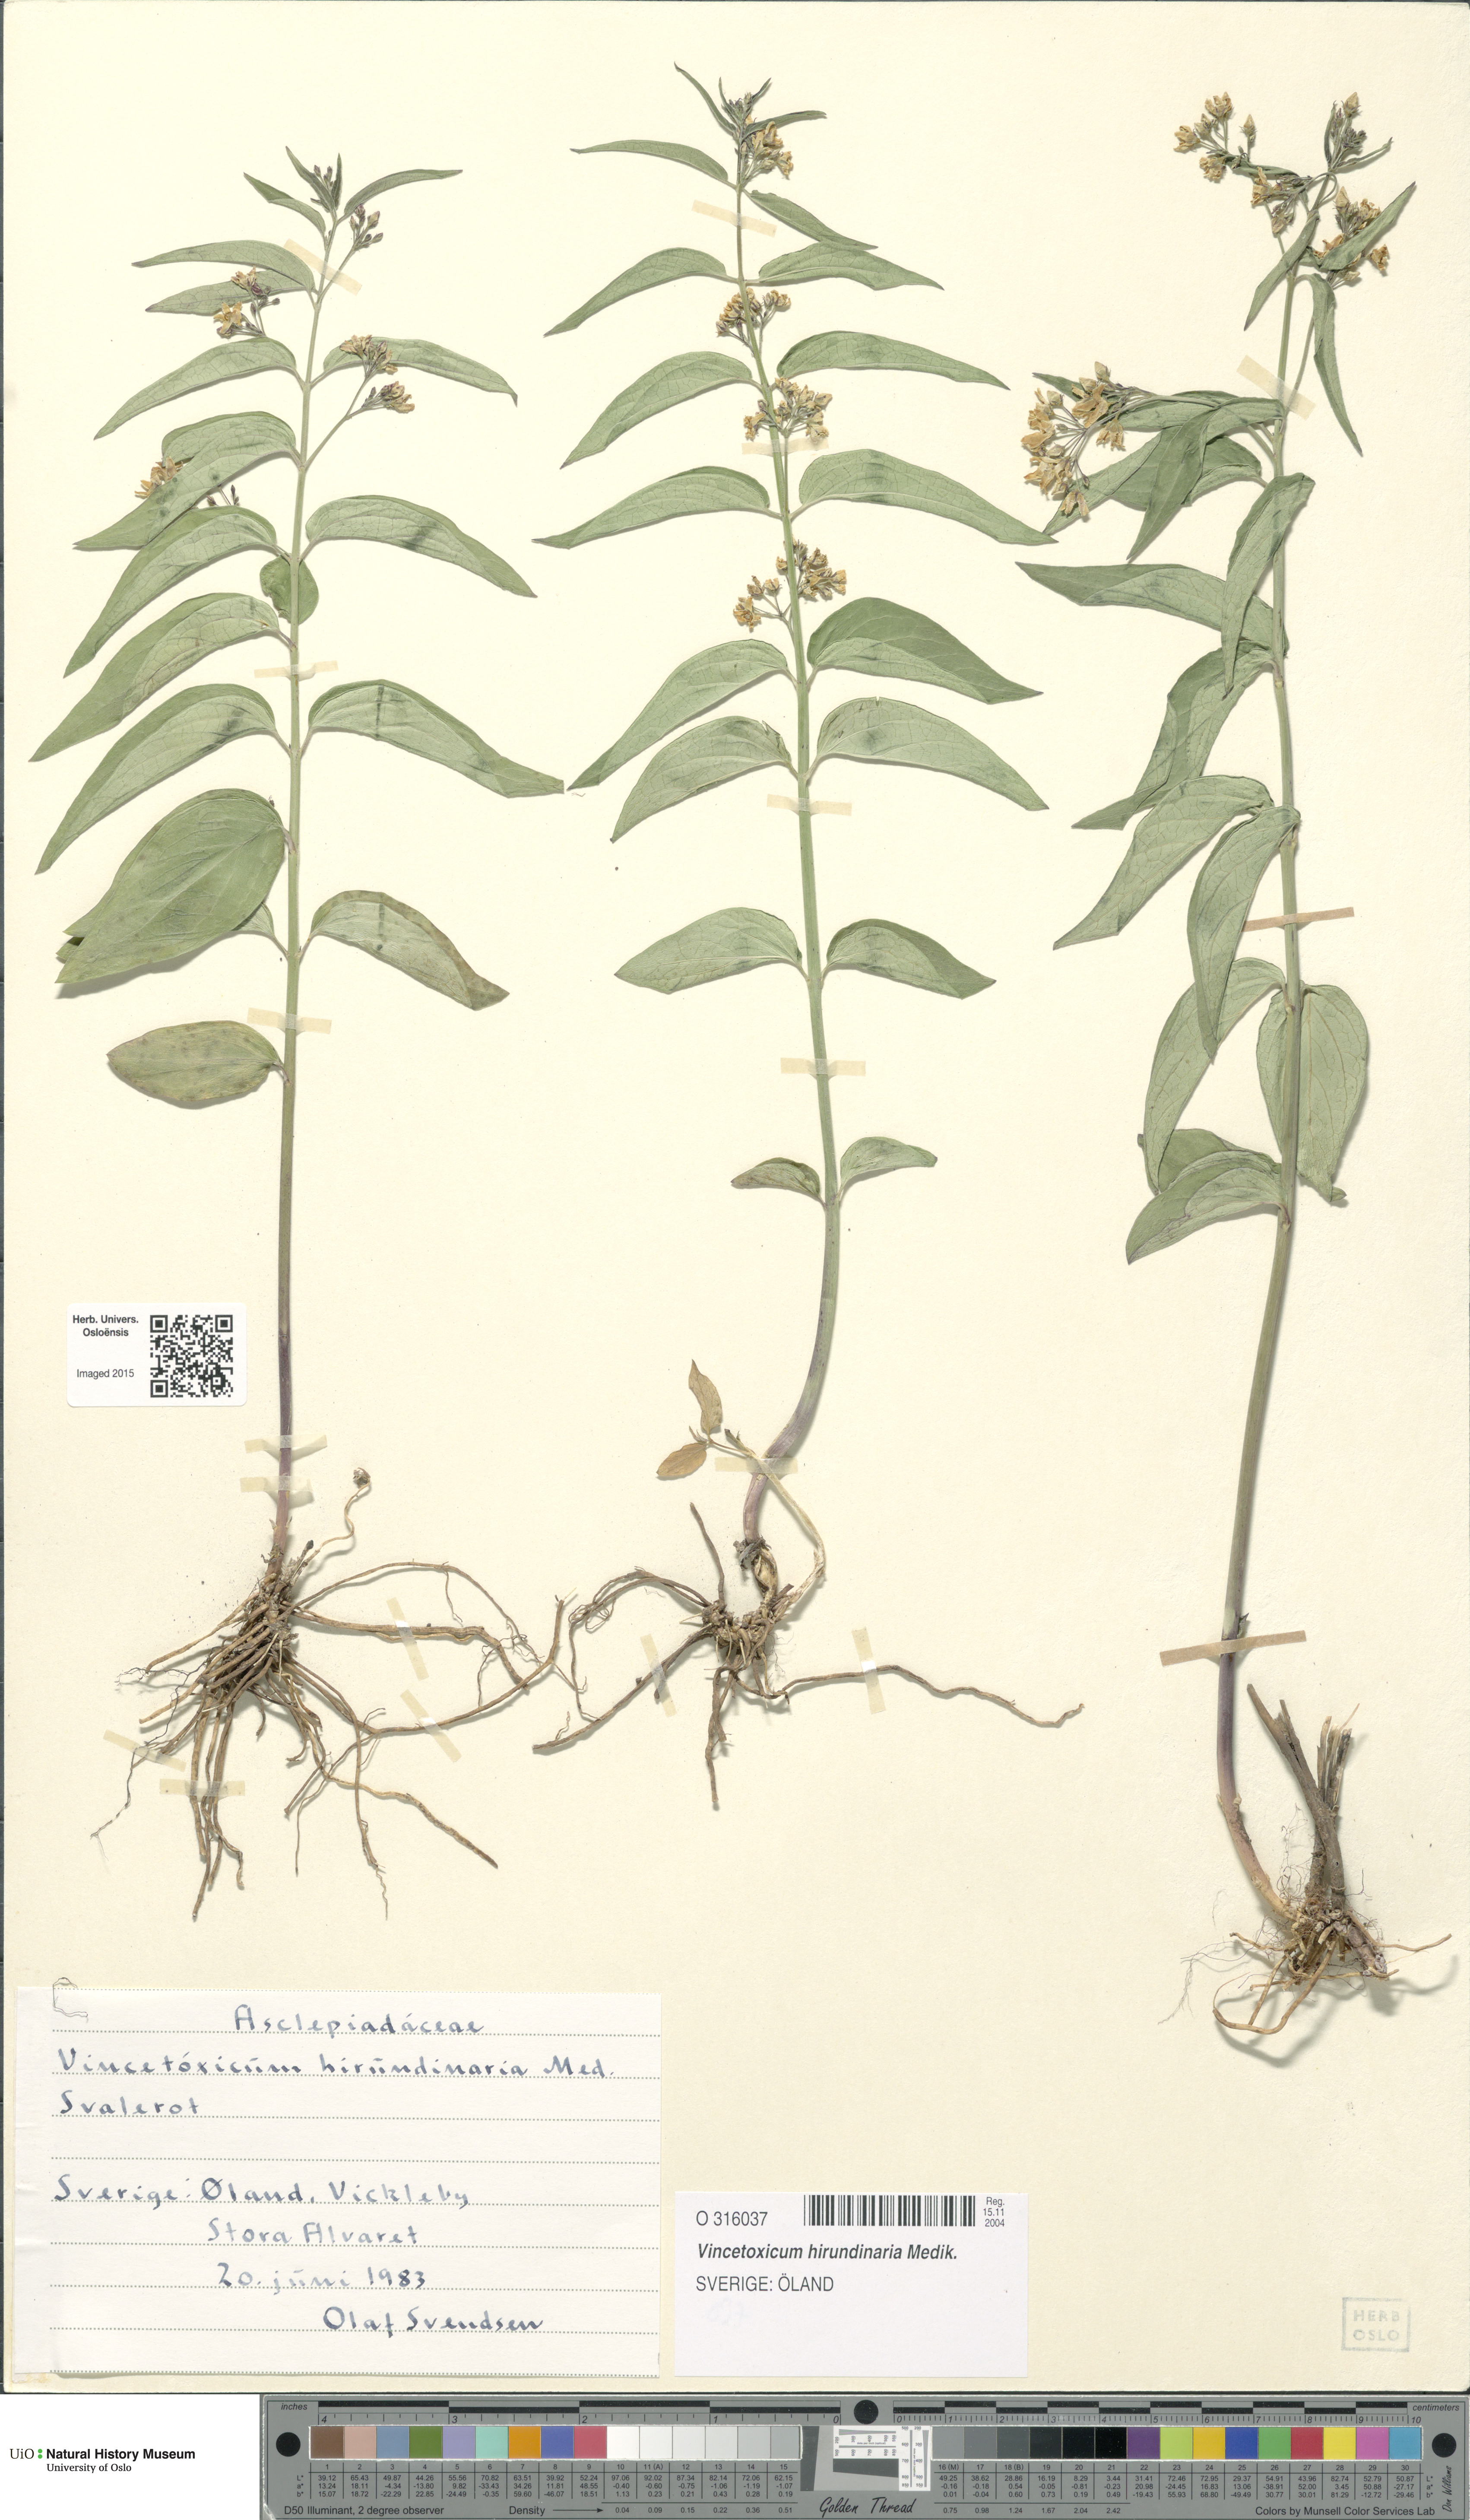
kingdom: Plantae
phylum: Tracheophyta
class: Magnoliopsida
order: Gentianales
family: Apocynaceae
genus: Vincetoxicum
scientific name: Vincetoxicum hirundinaria
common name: White swallowwort
